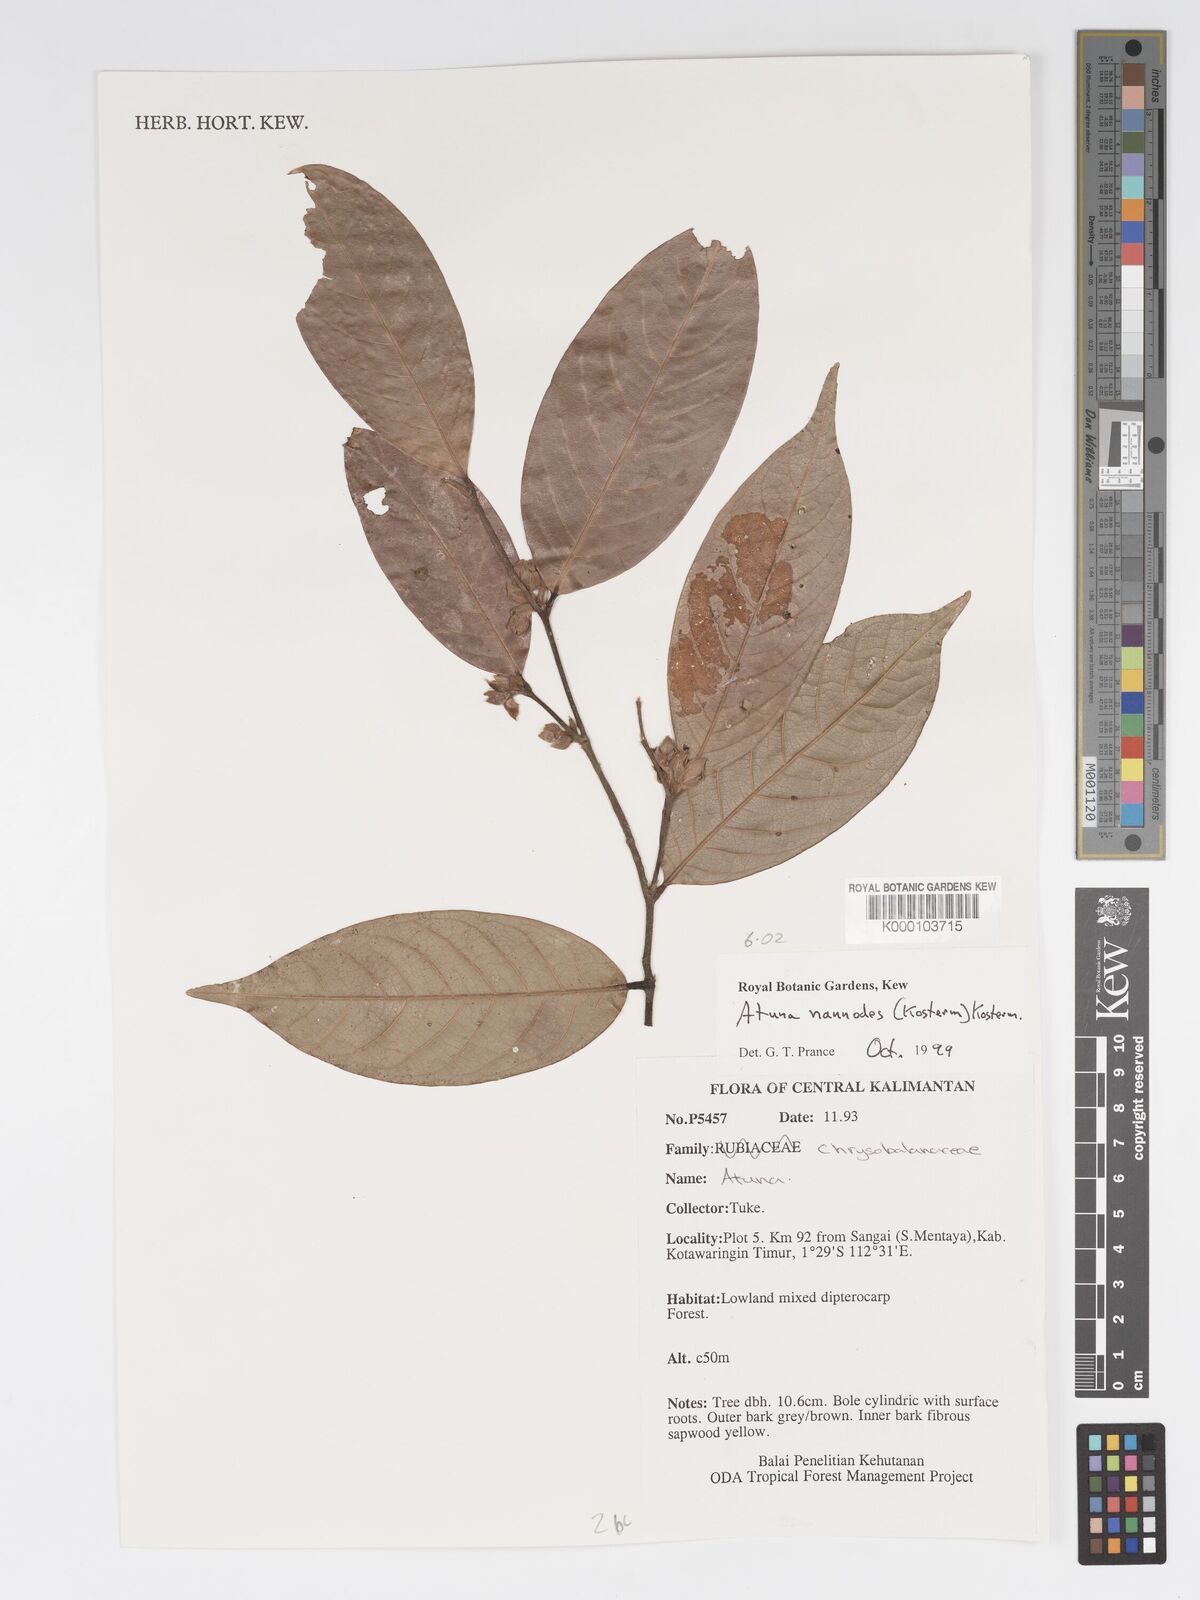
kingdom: Plantae
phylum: Tracheophyta
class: Magnoliopsida
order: Malpighiales
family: Chrysobalanaceae
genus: Atuna
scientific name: Atuna nannodes
